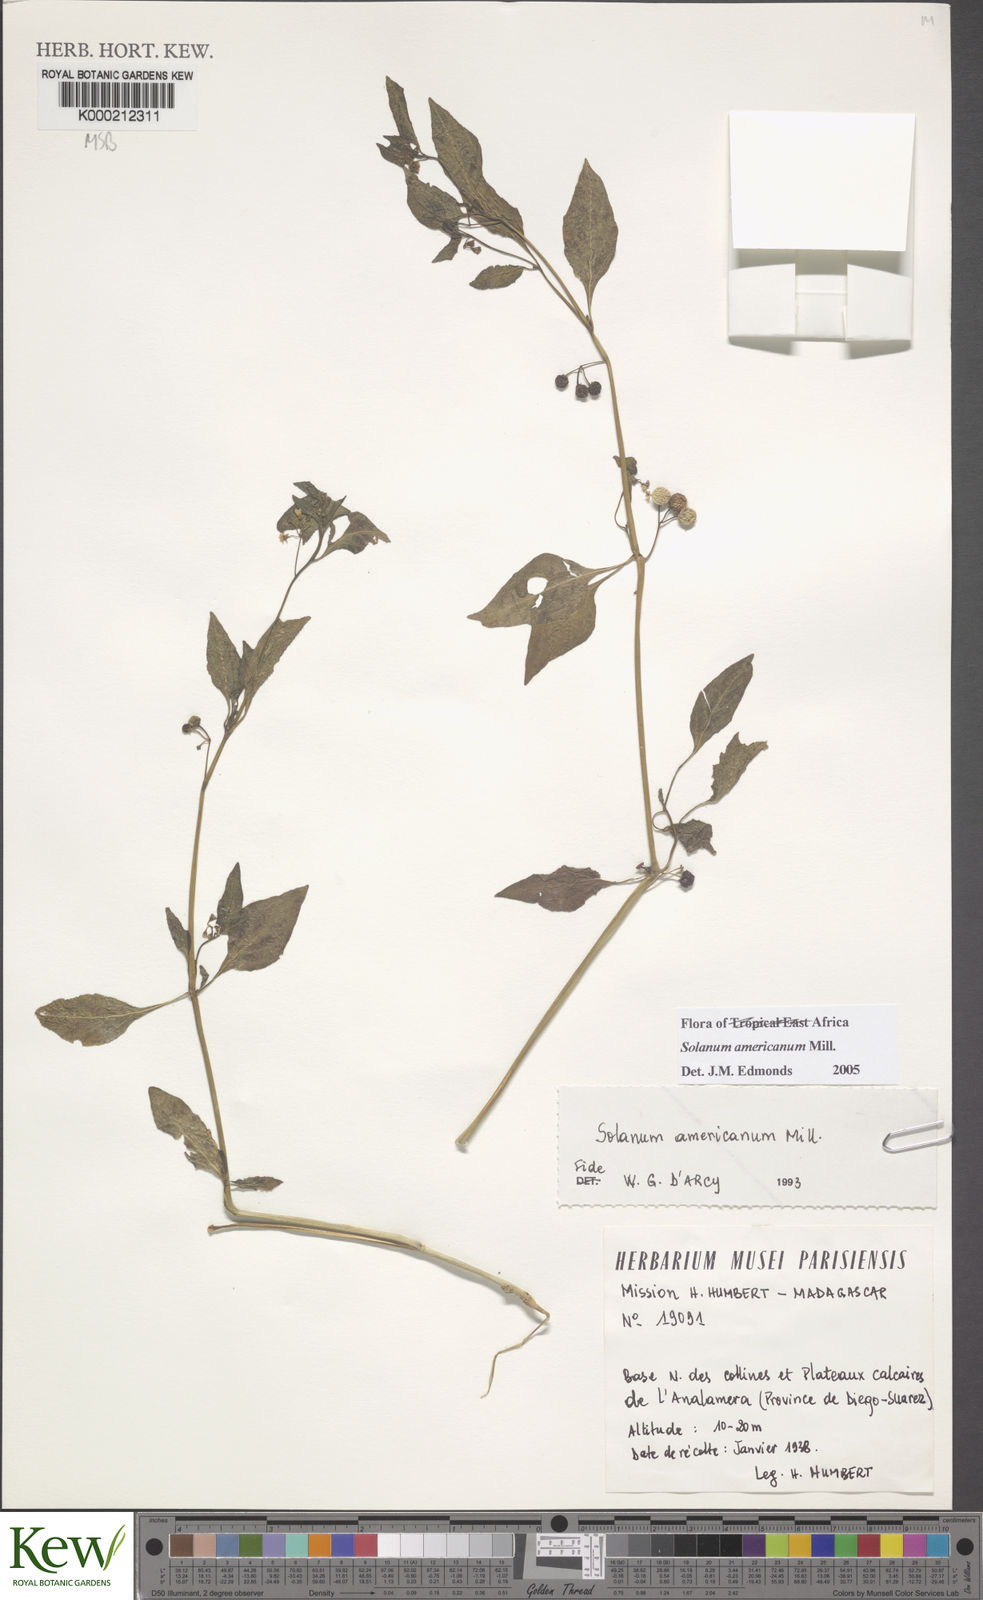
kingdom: Plantae
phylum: Tracheophyta
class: Magnoliopsida
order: Solanales
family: Solanaceae
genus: Solanum
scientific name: Solanum americanum
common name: American black nightshade
